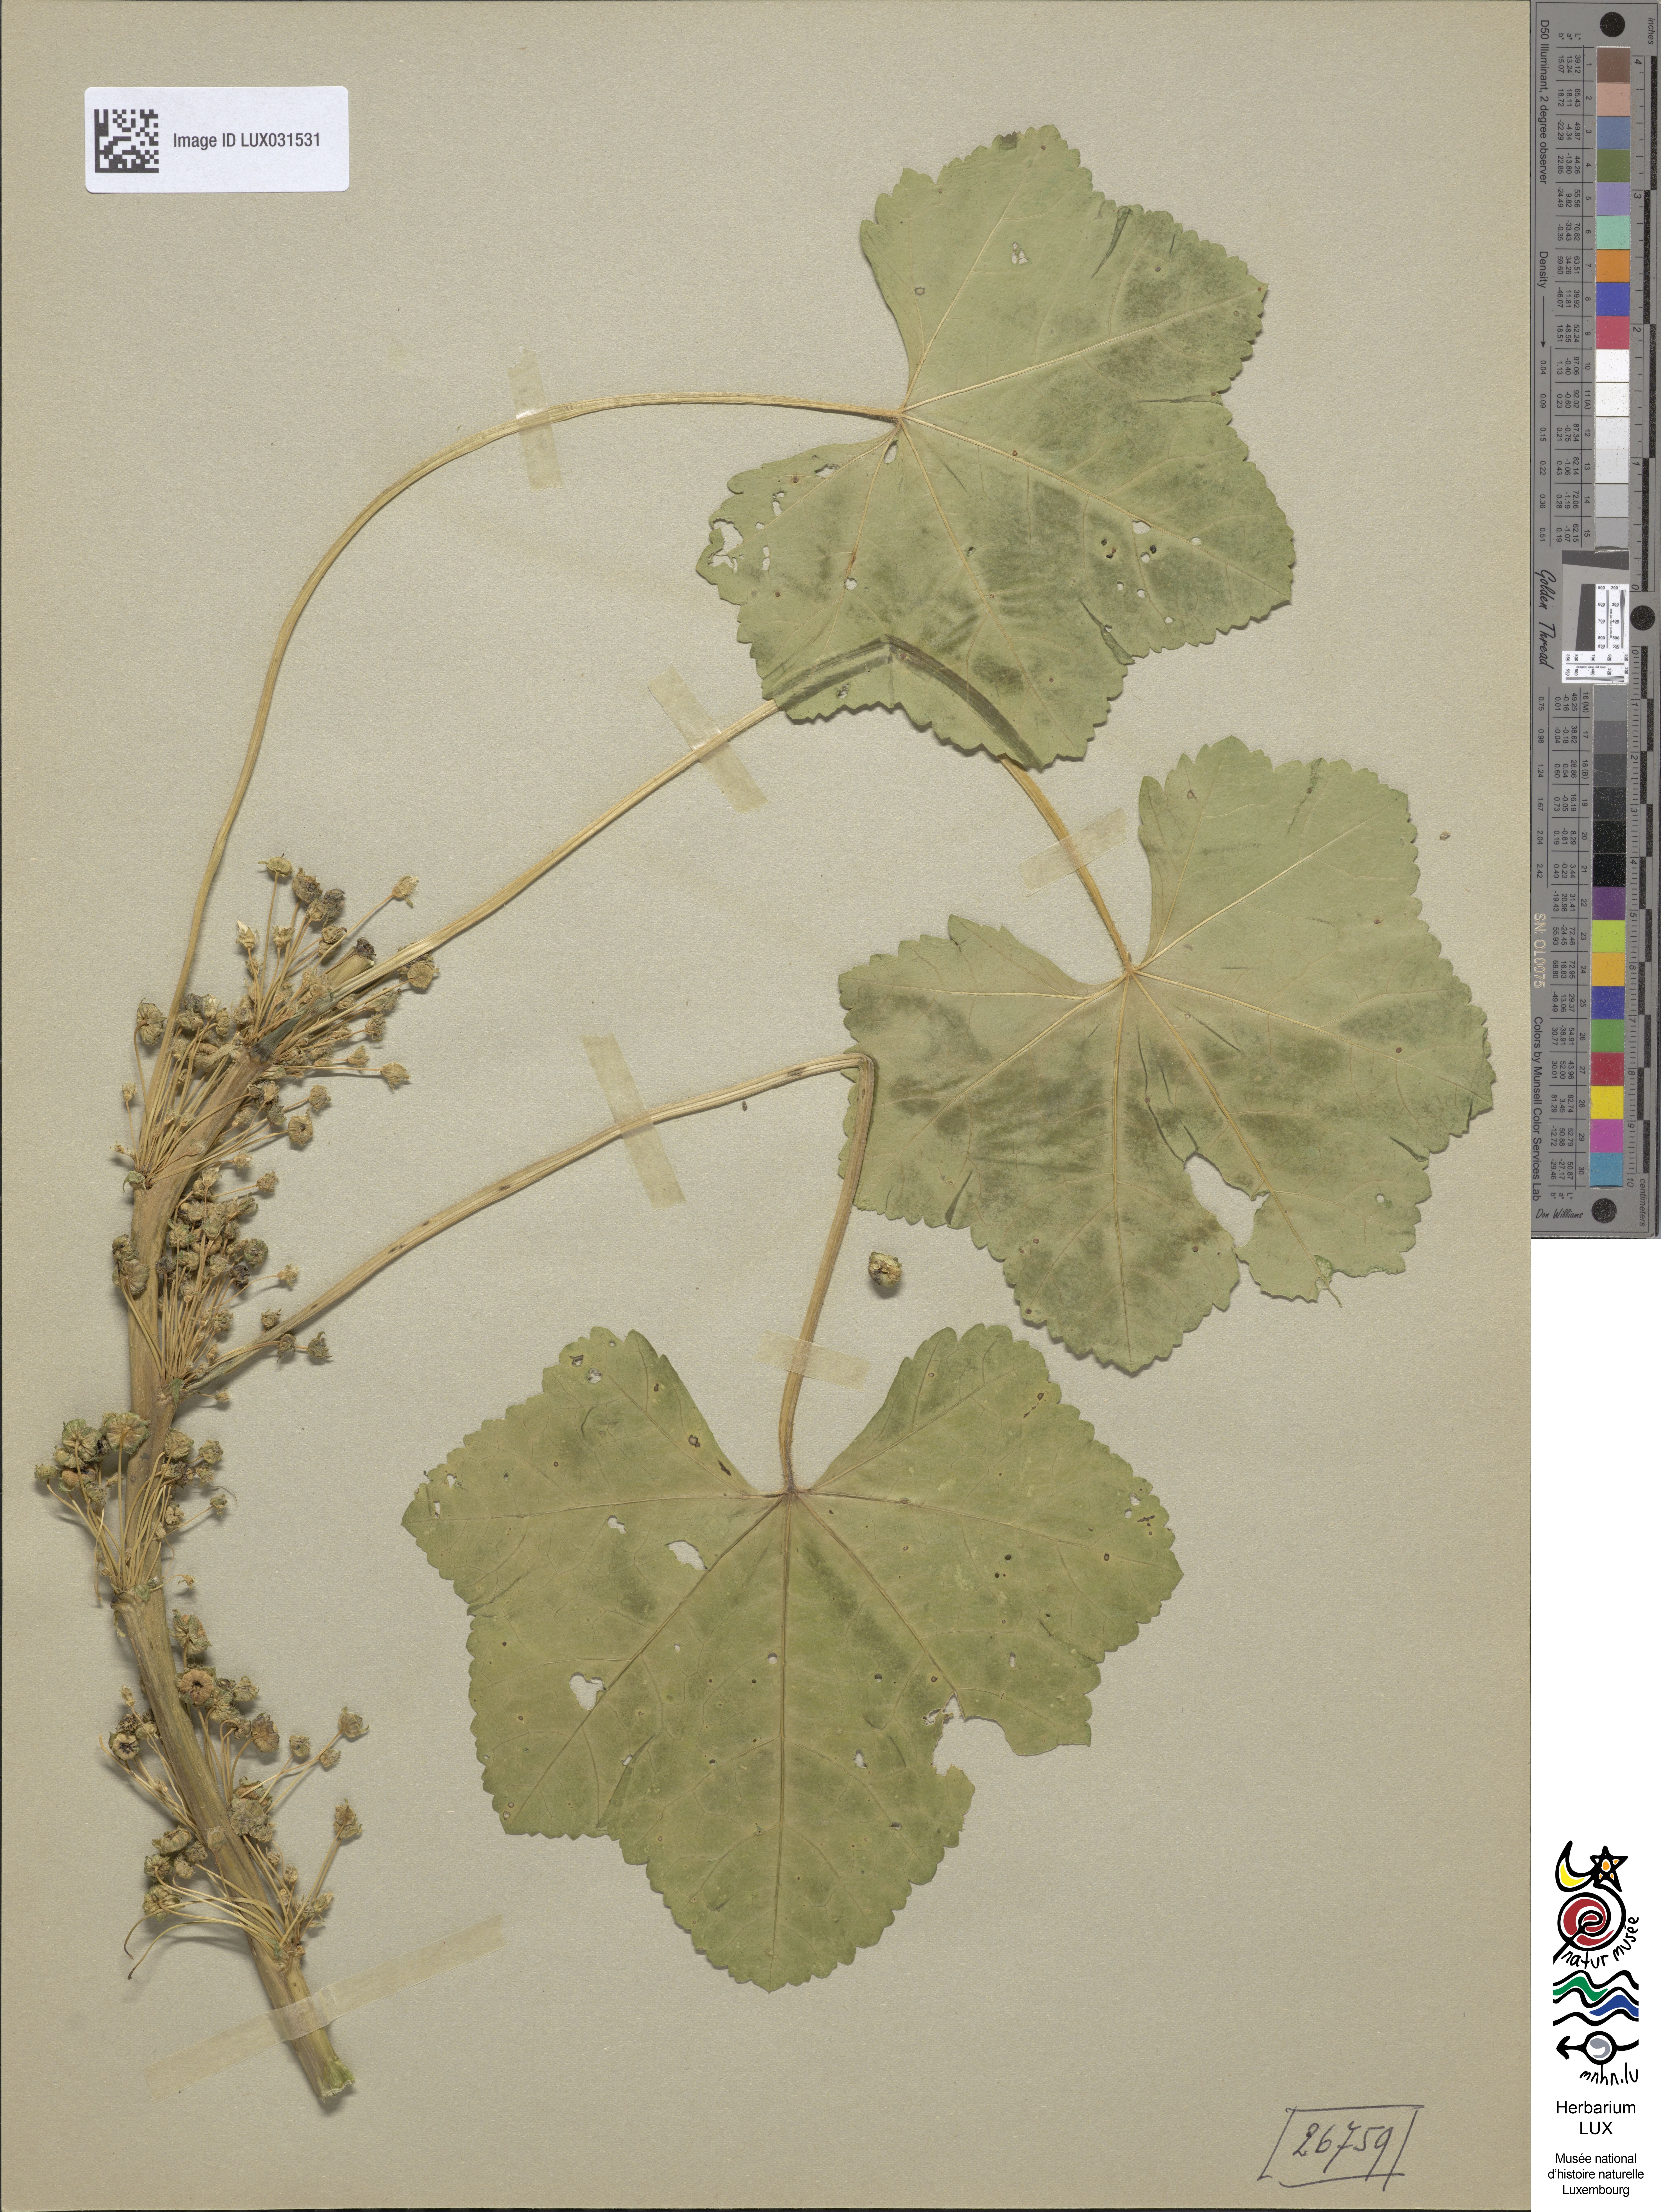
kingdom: Plantae
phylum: Tracheophyta
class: Magnoliopsida
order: Malvales
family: Malvaceae
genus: Malva
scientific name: Malva pusilla
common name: Small mallow
